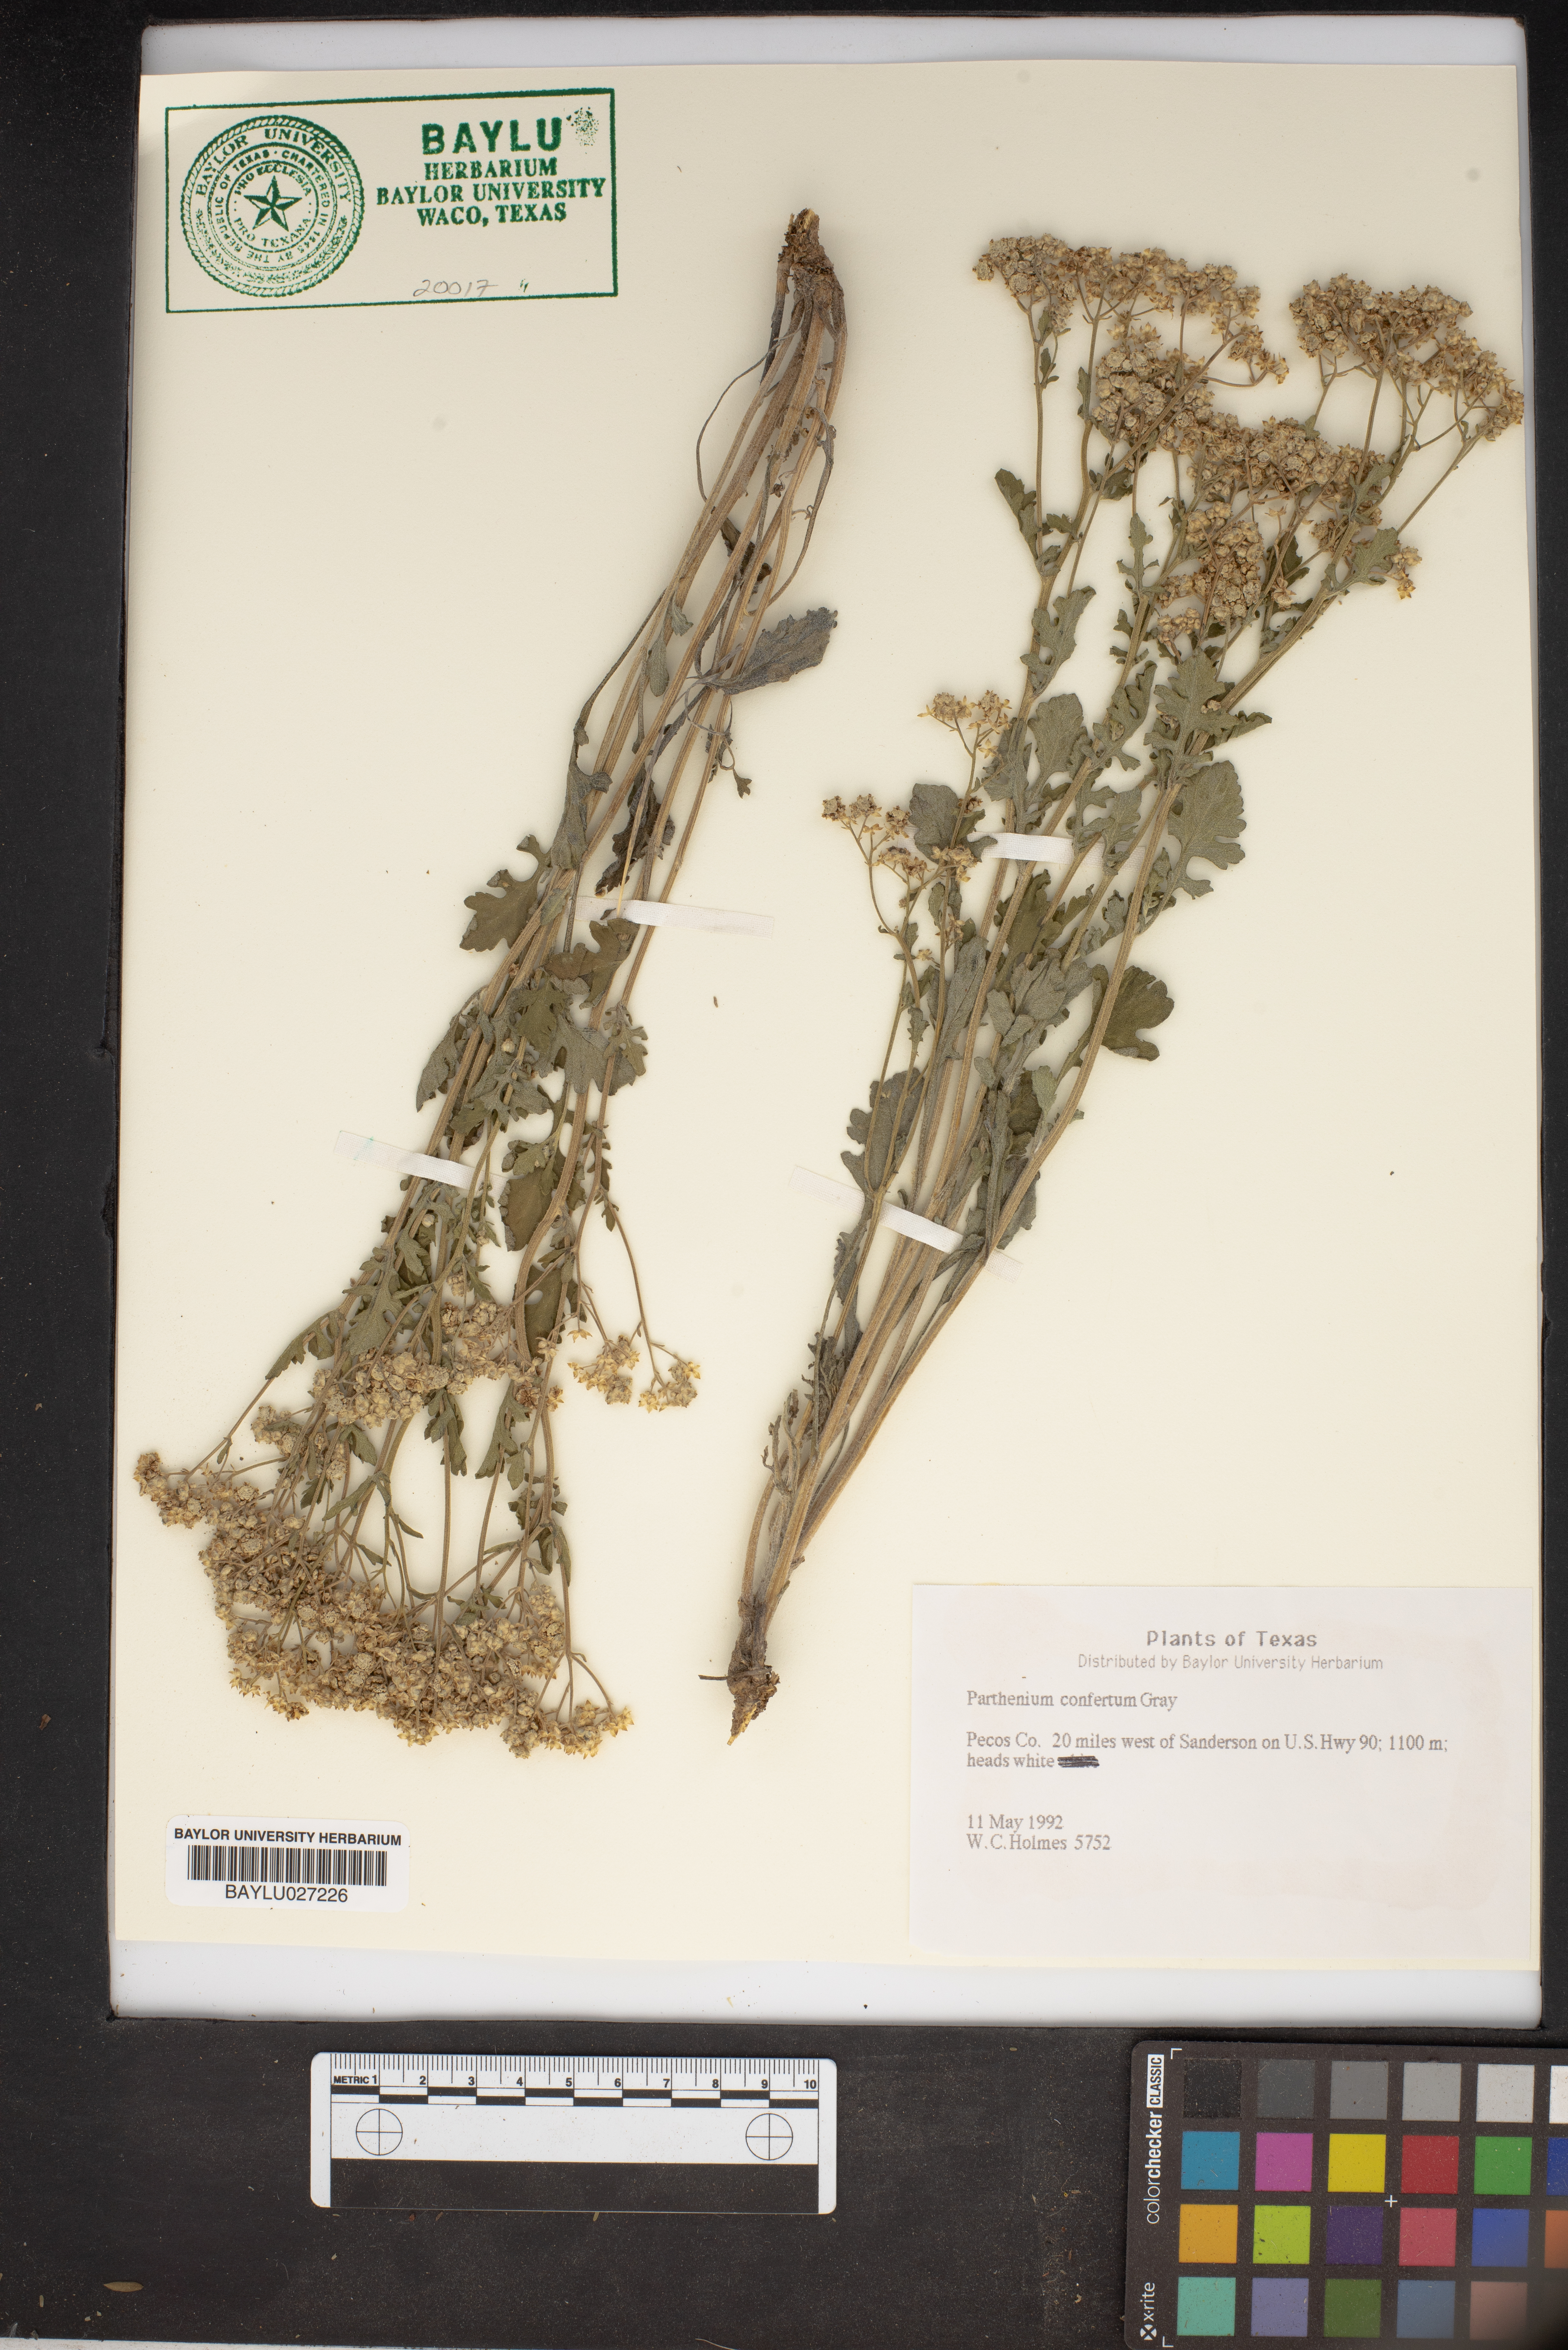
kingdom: Plantae
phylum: Tracheophyta
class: Magnoliopsida
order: Asterales
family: Asteraceae
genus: Parthenium
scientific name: Parthenium confertum
